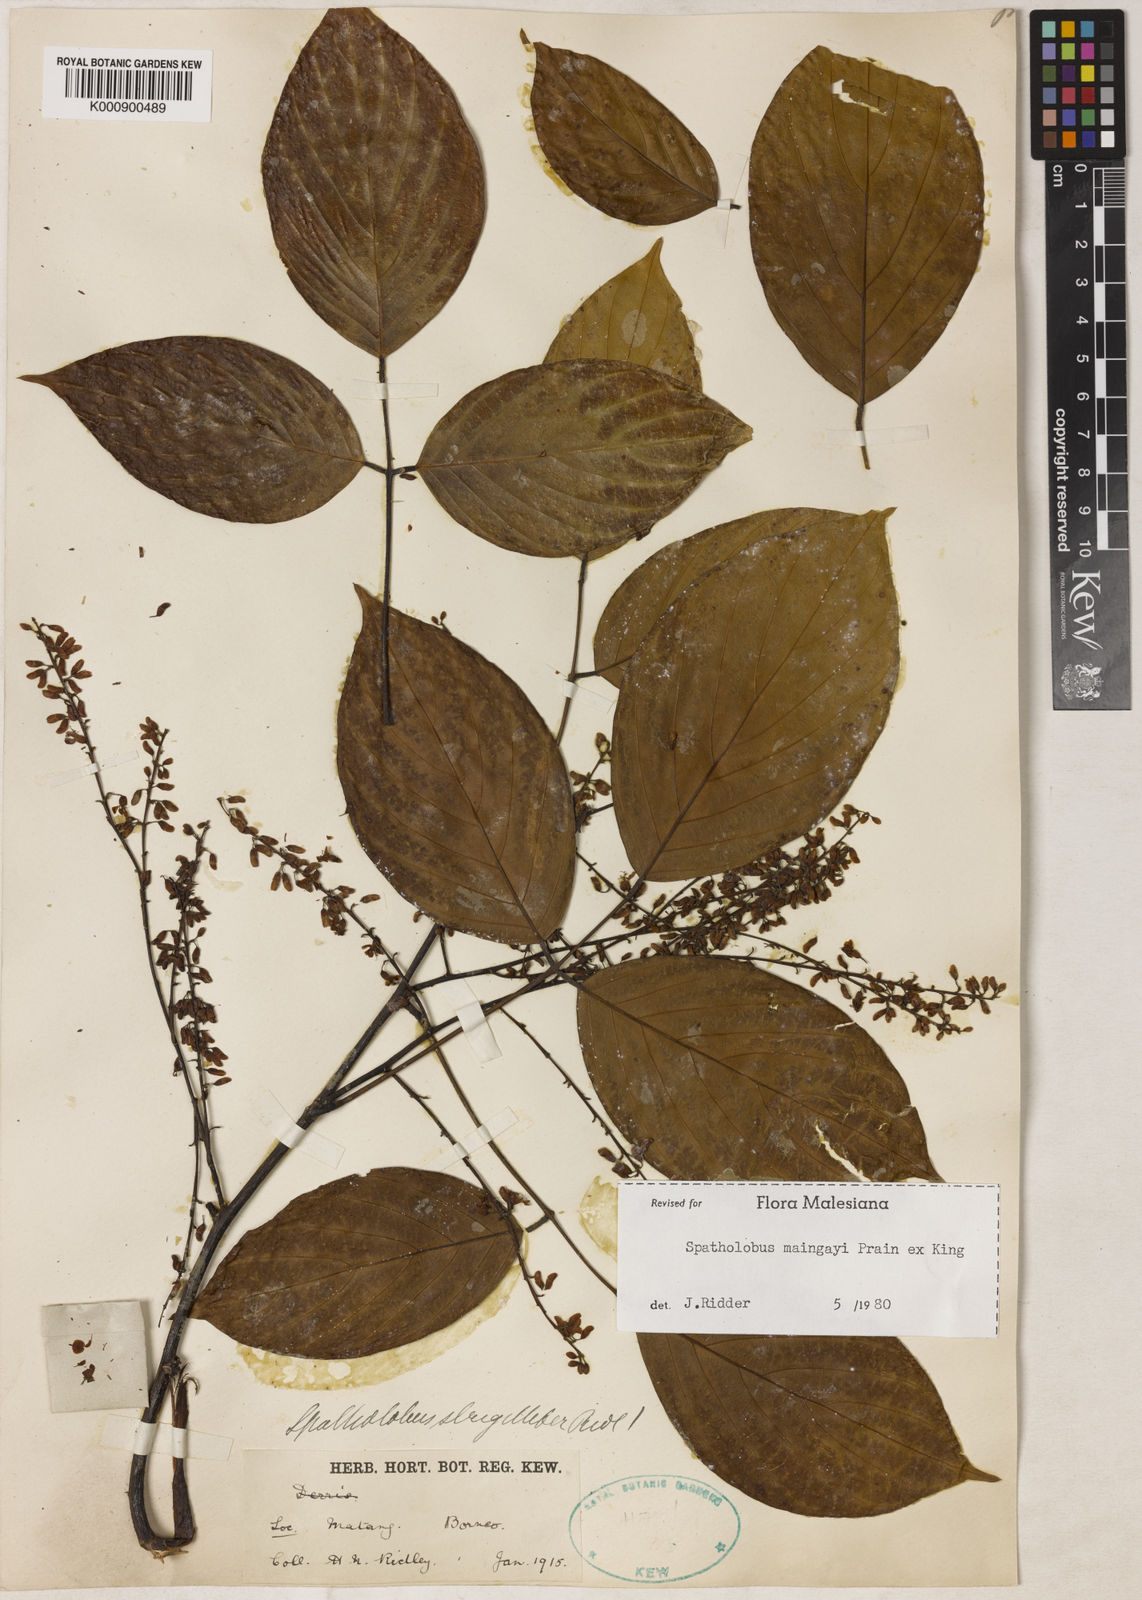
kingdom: Plantae
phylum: Tracheophyta
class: Magnoliopsida
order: Fabales
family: Fabaceae
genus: Spatholobus
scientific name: Spatholobus
